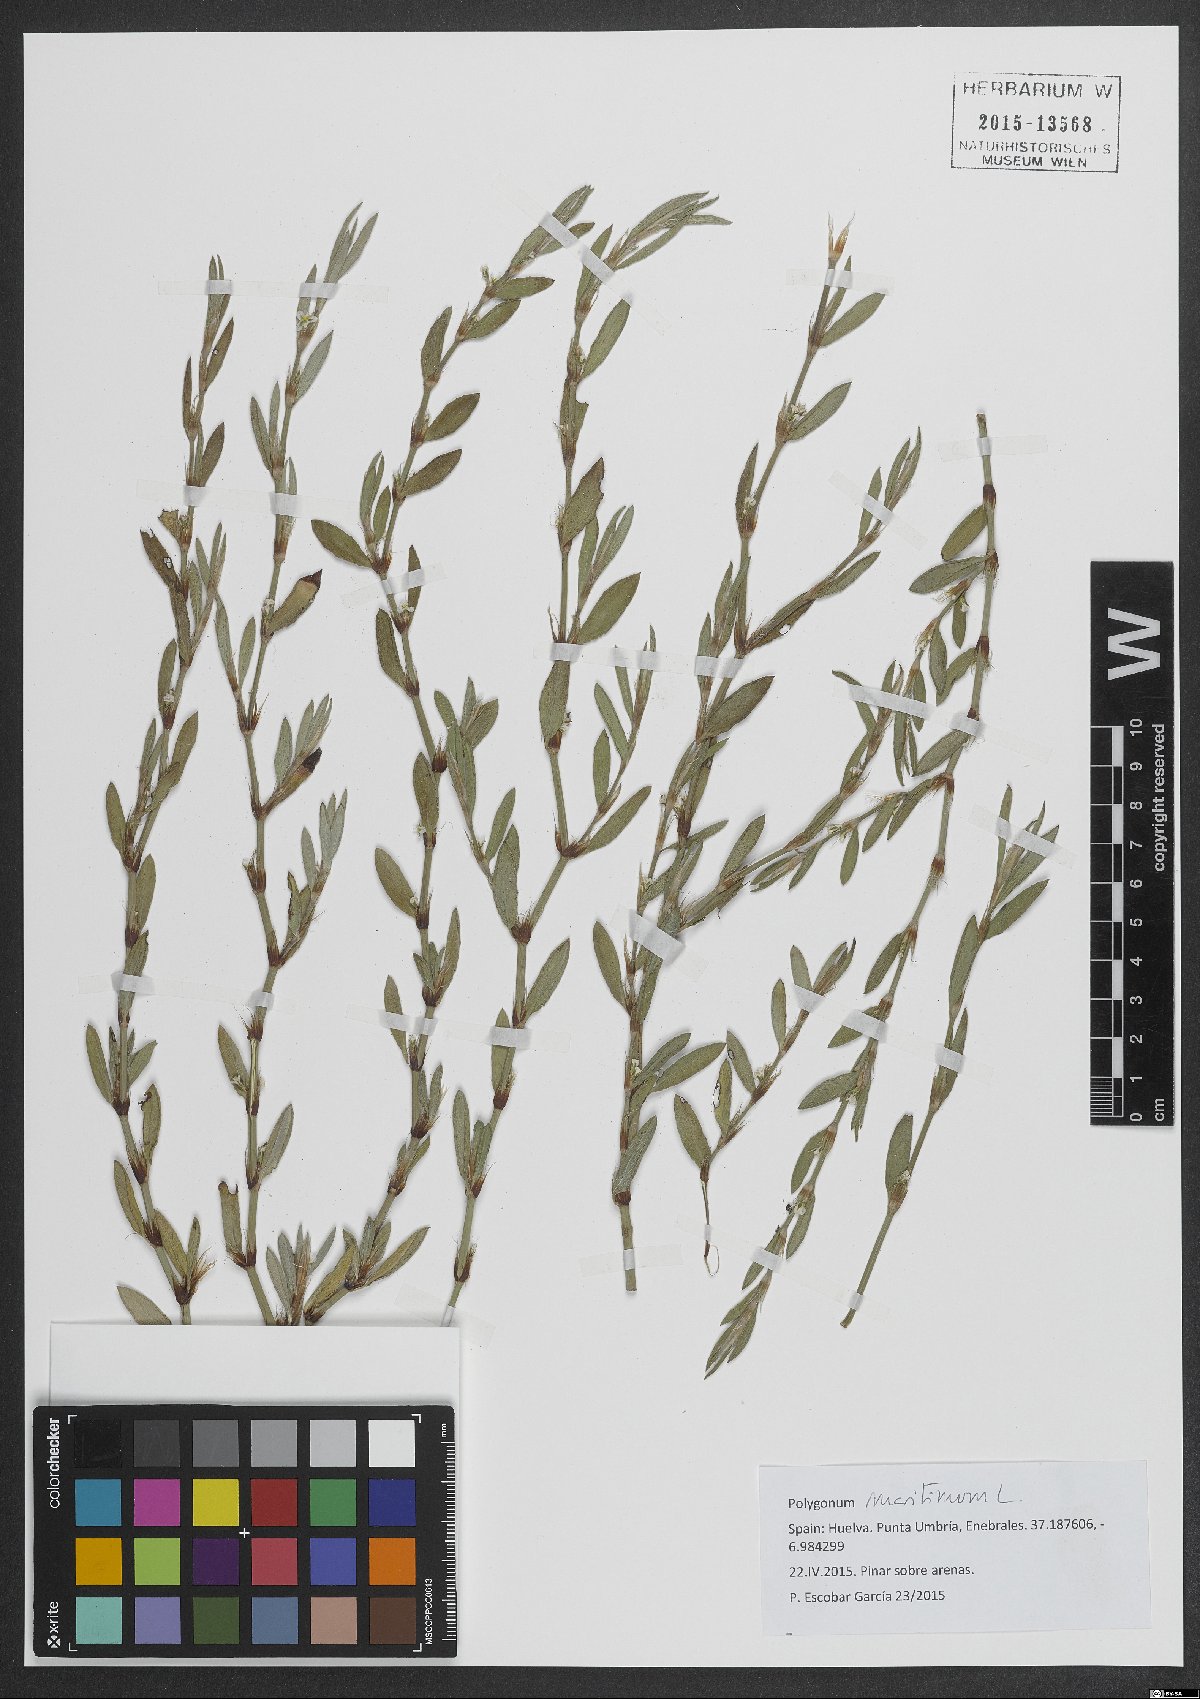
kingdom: Plantae
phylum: Tracheophyta
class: Magnoliopsida
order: Caryophyllales
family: Polygonaceae
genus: Polygonum
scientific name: Polygonum maritimum
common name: Sea knotgrass
